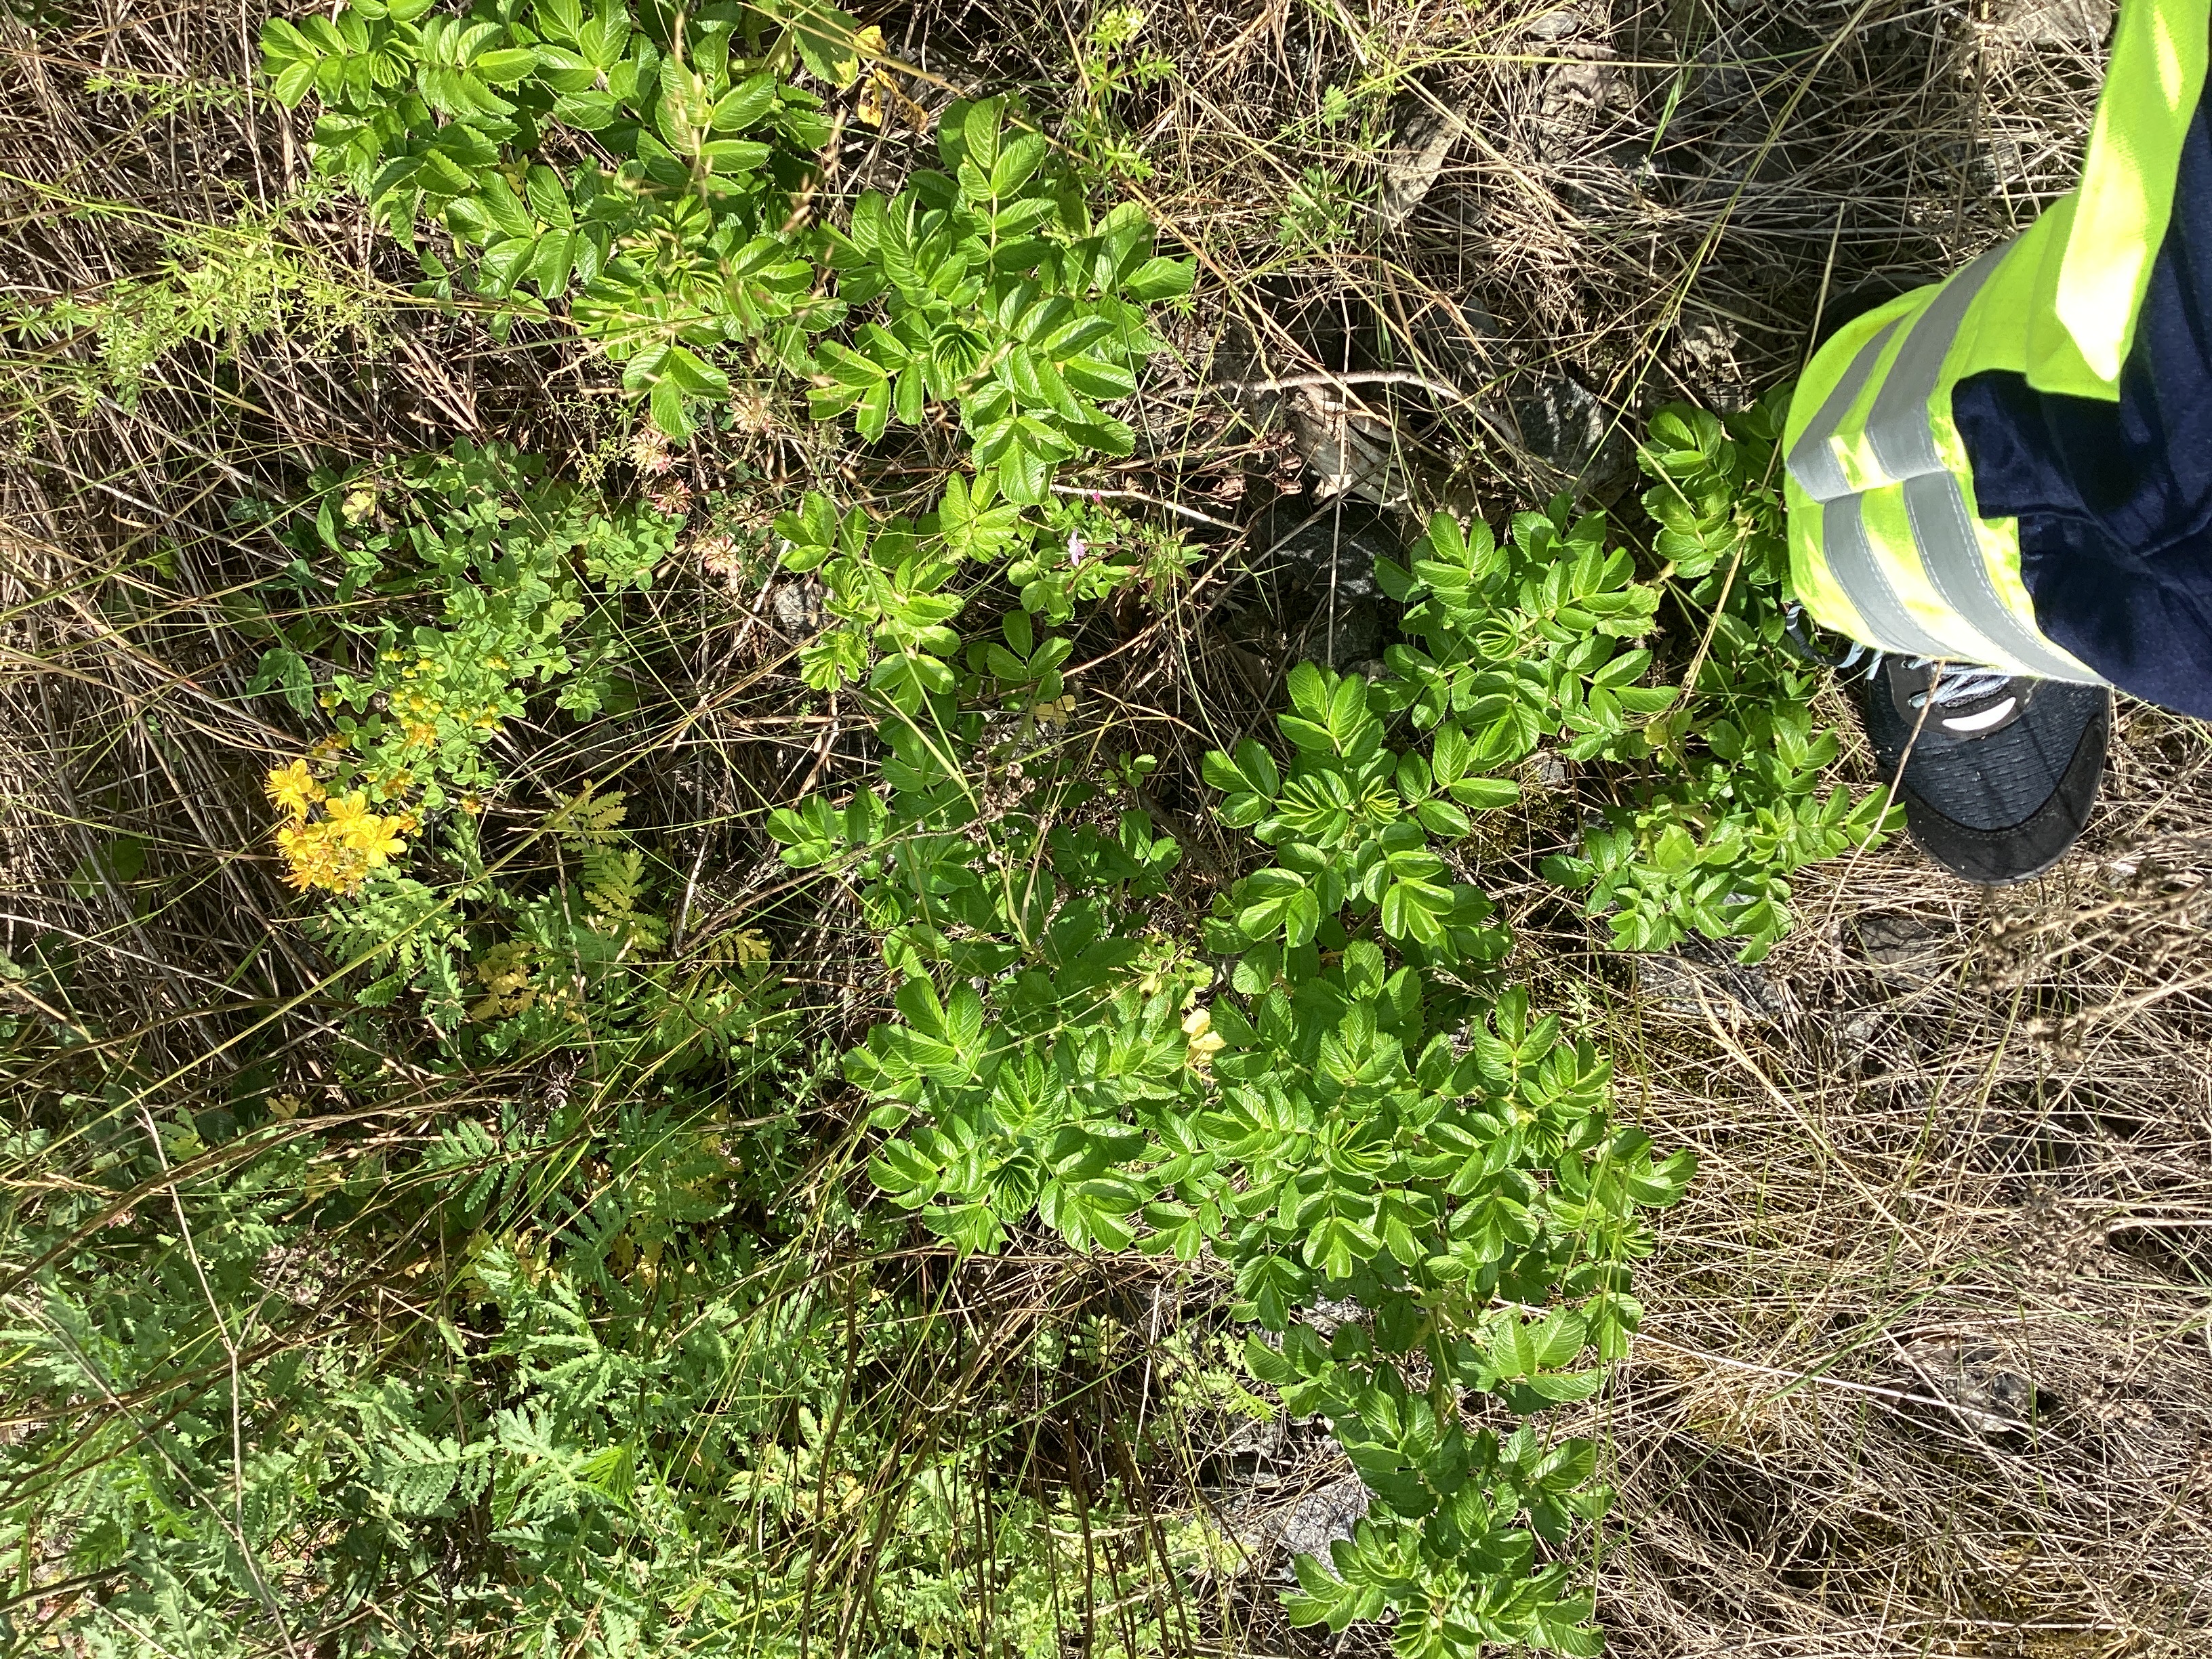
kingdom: Plantae
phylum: Tracheophyta
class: Magnoliopsida
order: Rosales
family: Rosaceae
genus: Rosa
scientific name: Rosa rugosa
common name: rynkerose
